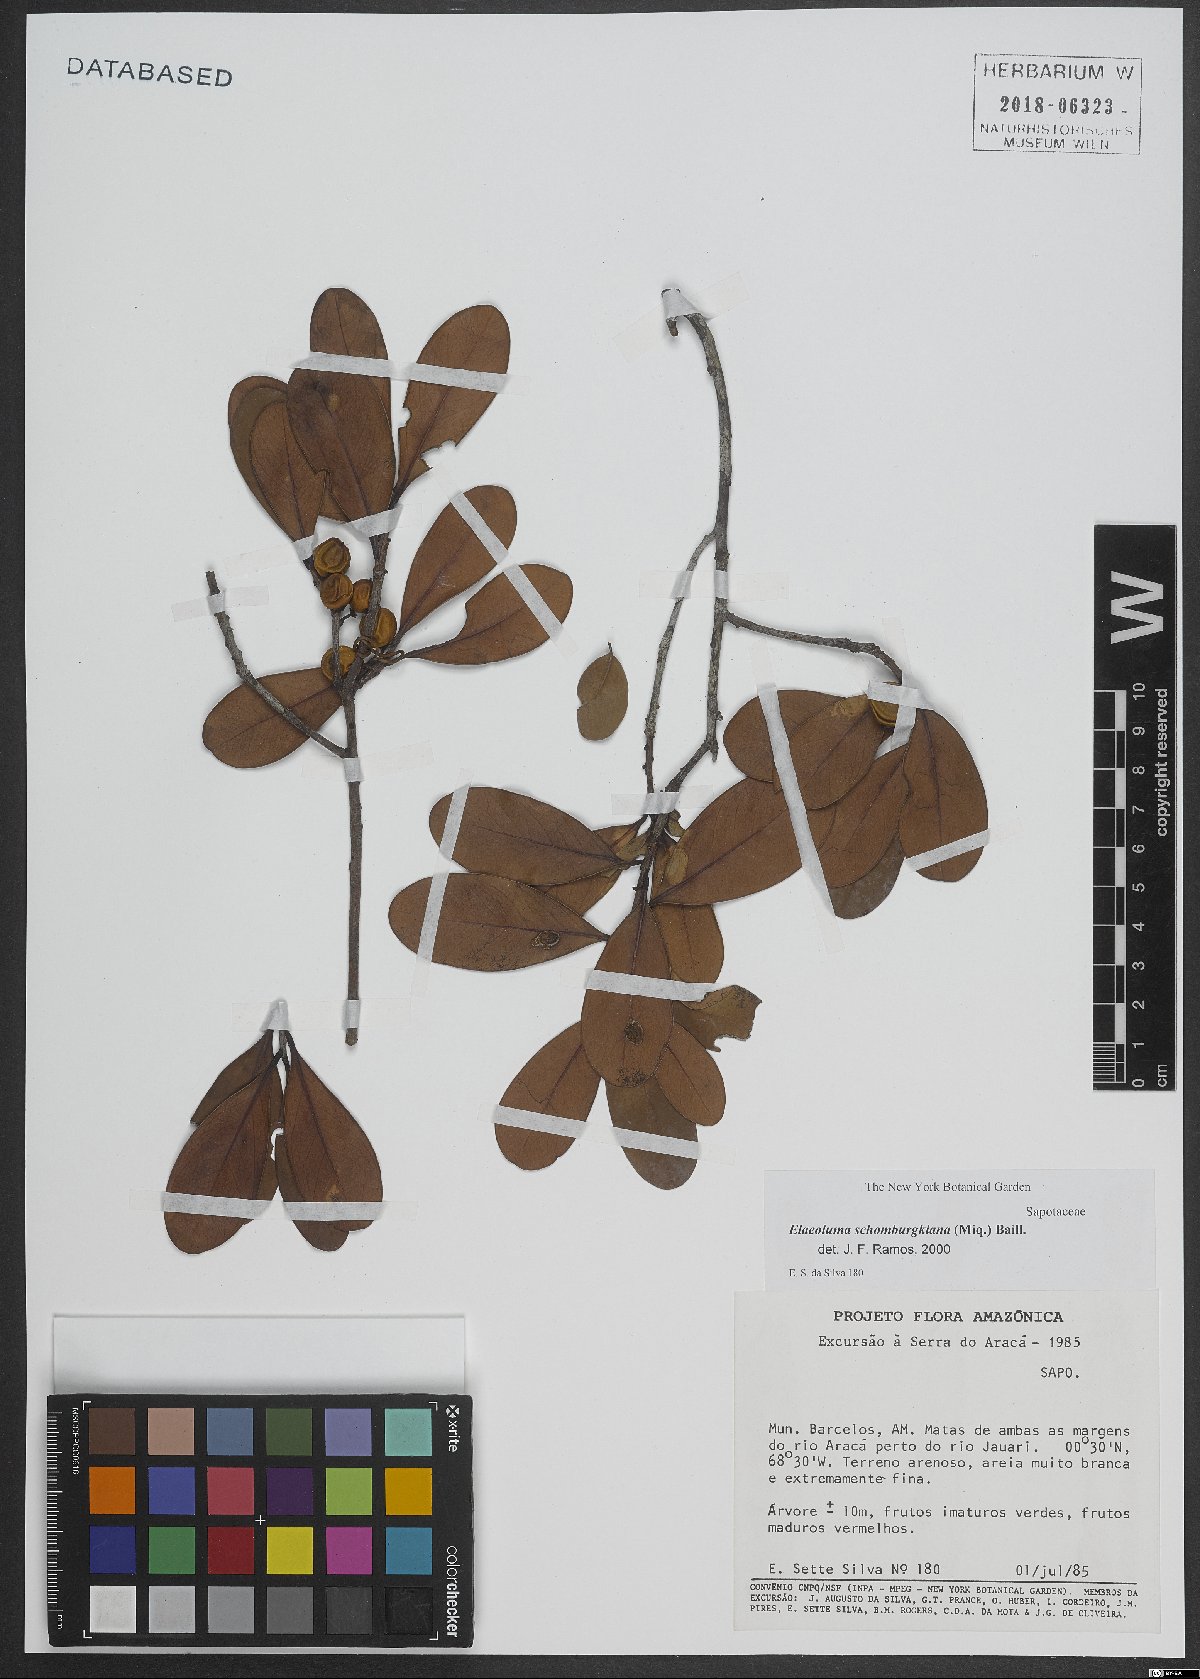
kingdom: Plantae
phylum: Tracheophyta
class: Magnoliopsida
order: Ericales
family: Sapotaceae
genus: Elaeoluma
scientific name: Elaeoluma schomburgkiana
